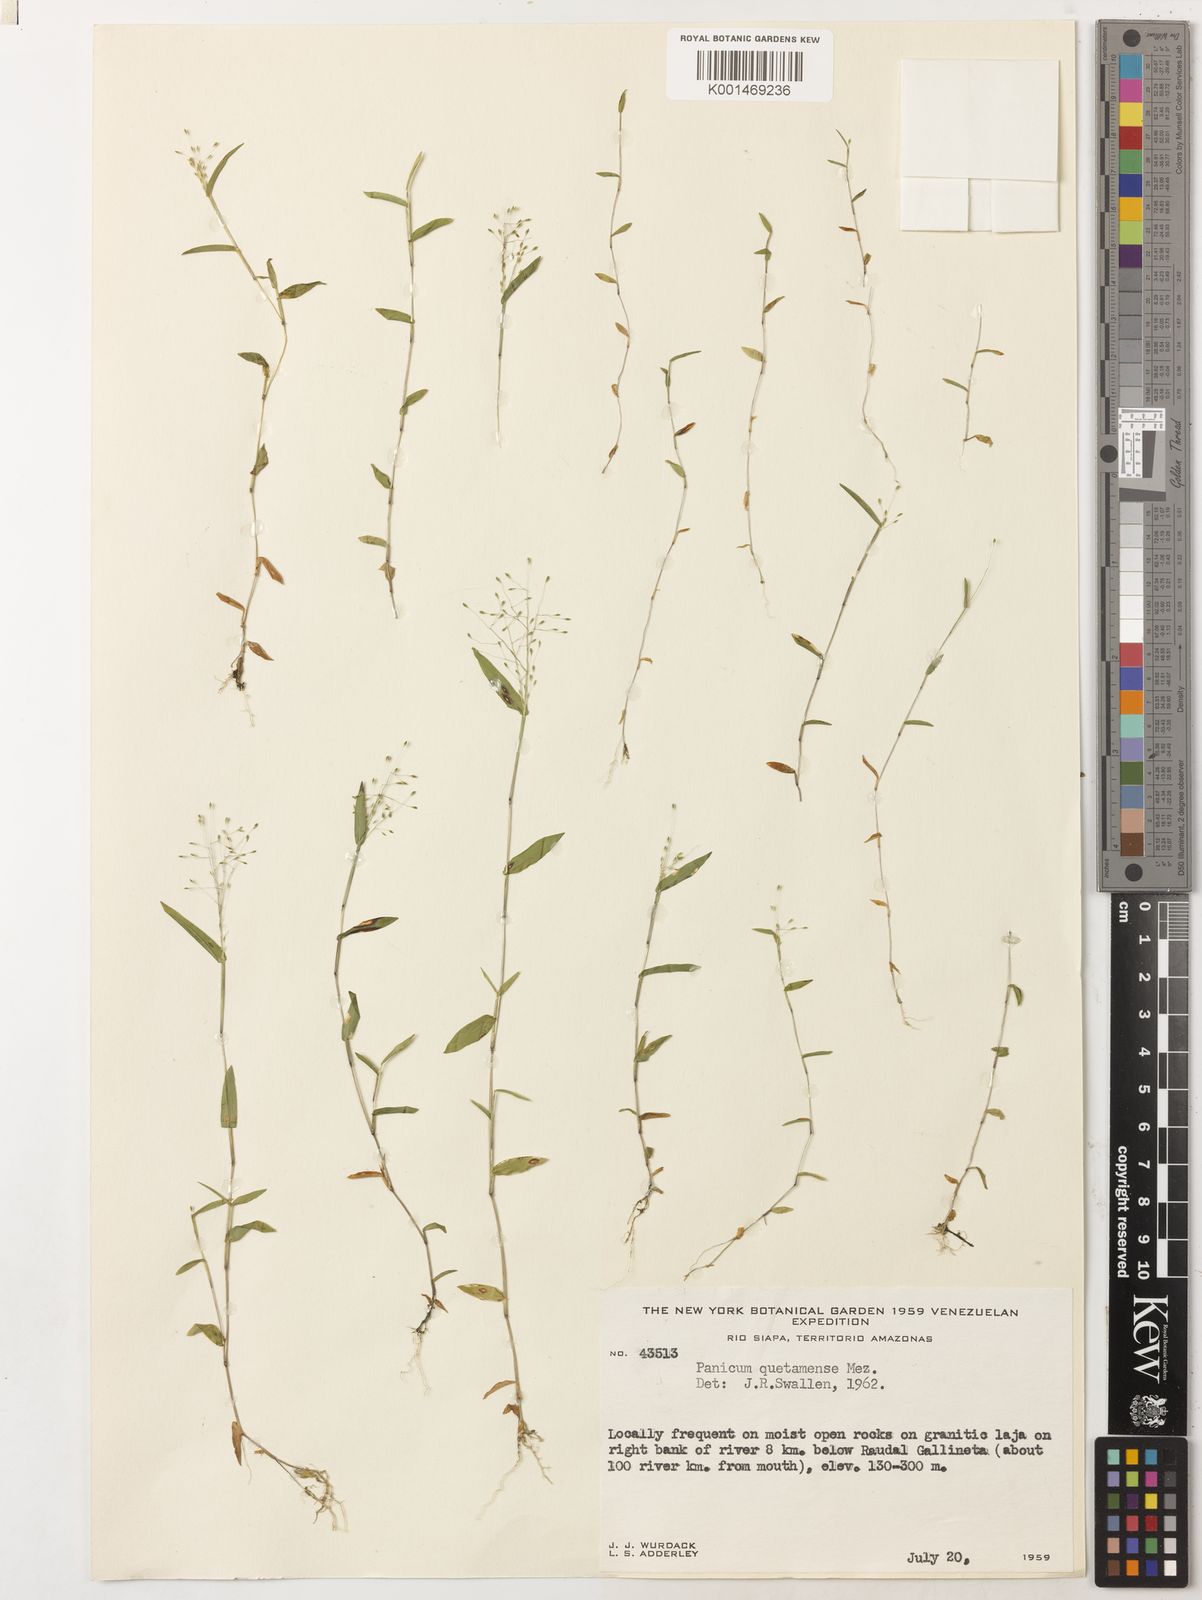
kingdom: Plantae
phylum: Tracheophyta
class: Liliopsida
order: Poales
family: Poaceae
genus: Trichanthecium
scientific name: Trichanthecium pyrularium
